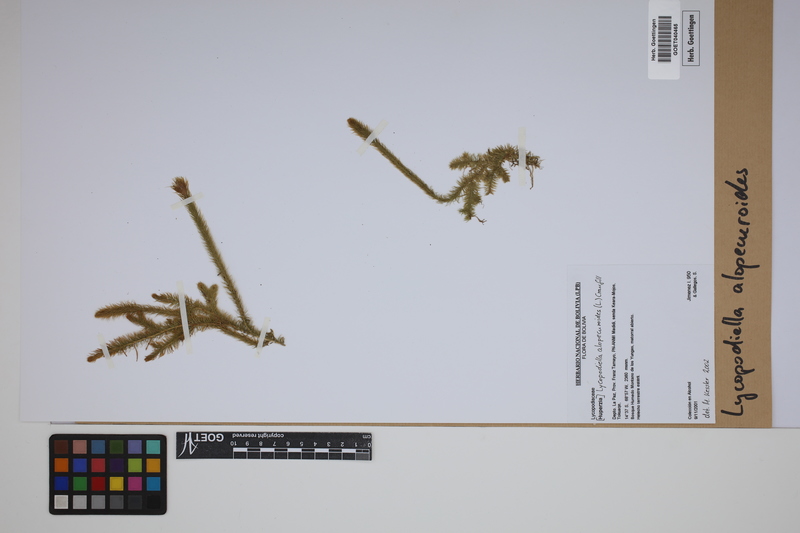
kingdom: Plantae
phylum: Tracheophyta
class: Lycopodiopsida
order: Lycopodiales
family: Lycopodiaceae
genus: Lycopodiella
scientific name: Lycopodiella alopecuroides
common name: Foxtail clubmoss
